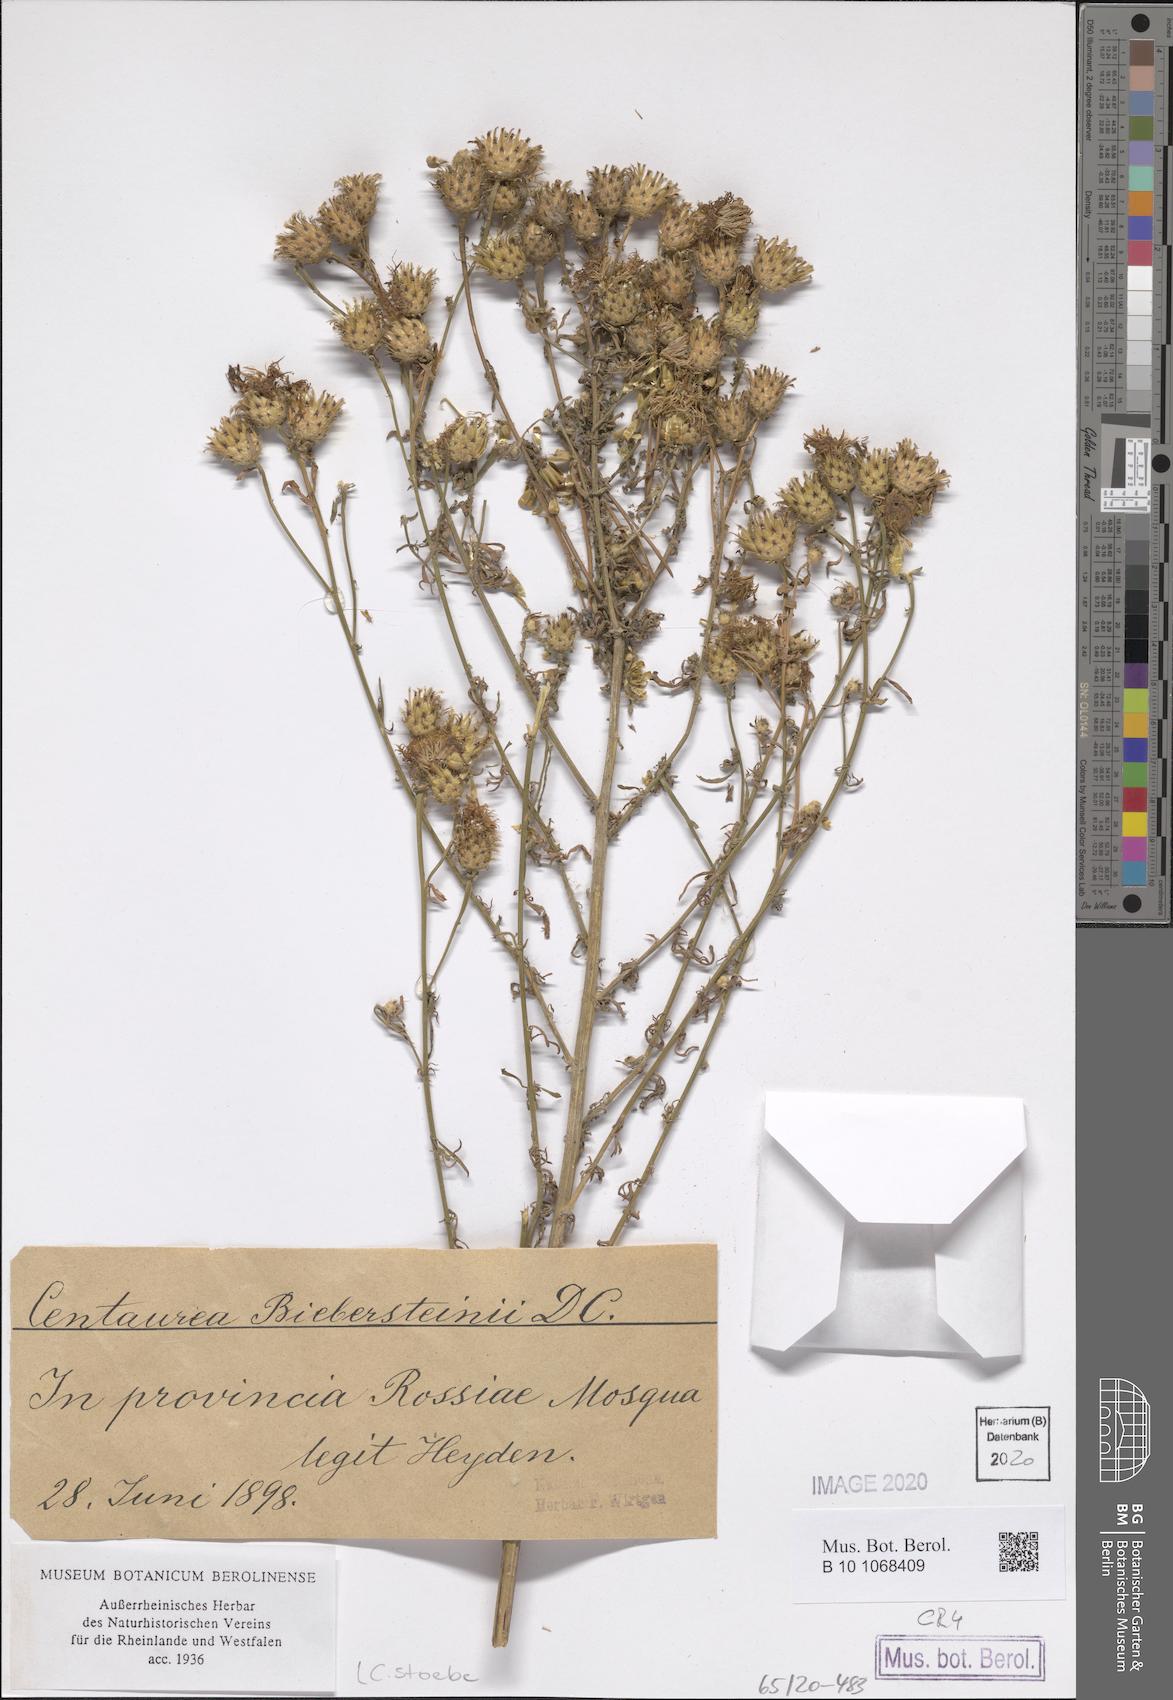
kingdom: Plantae
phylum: Tracheophyta
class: Magnoliopsida
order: Asterales
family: Asteraceae
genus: Centaurea
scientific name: Centaurea stoebe
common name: Spotted knapweed
